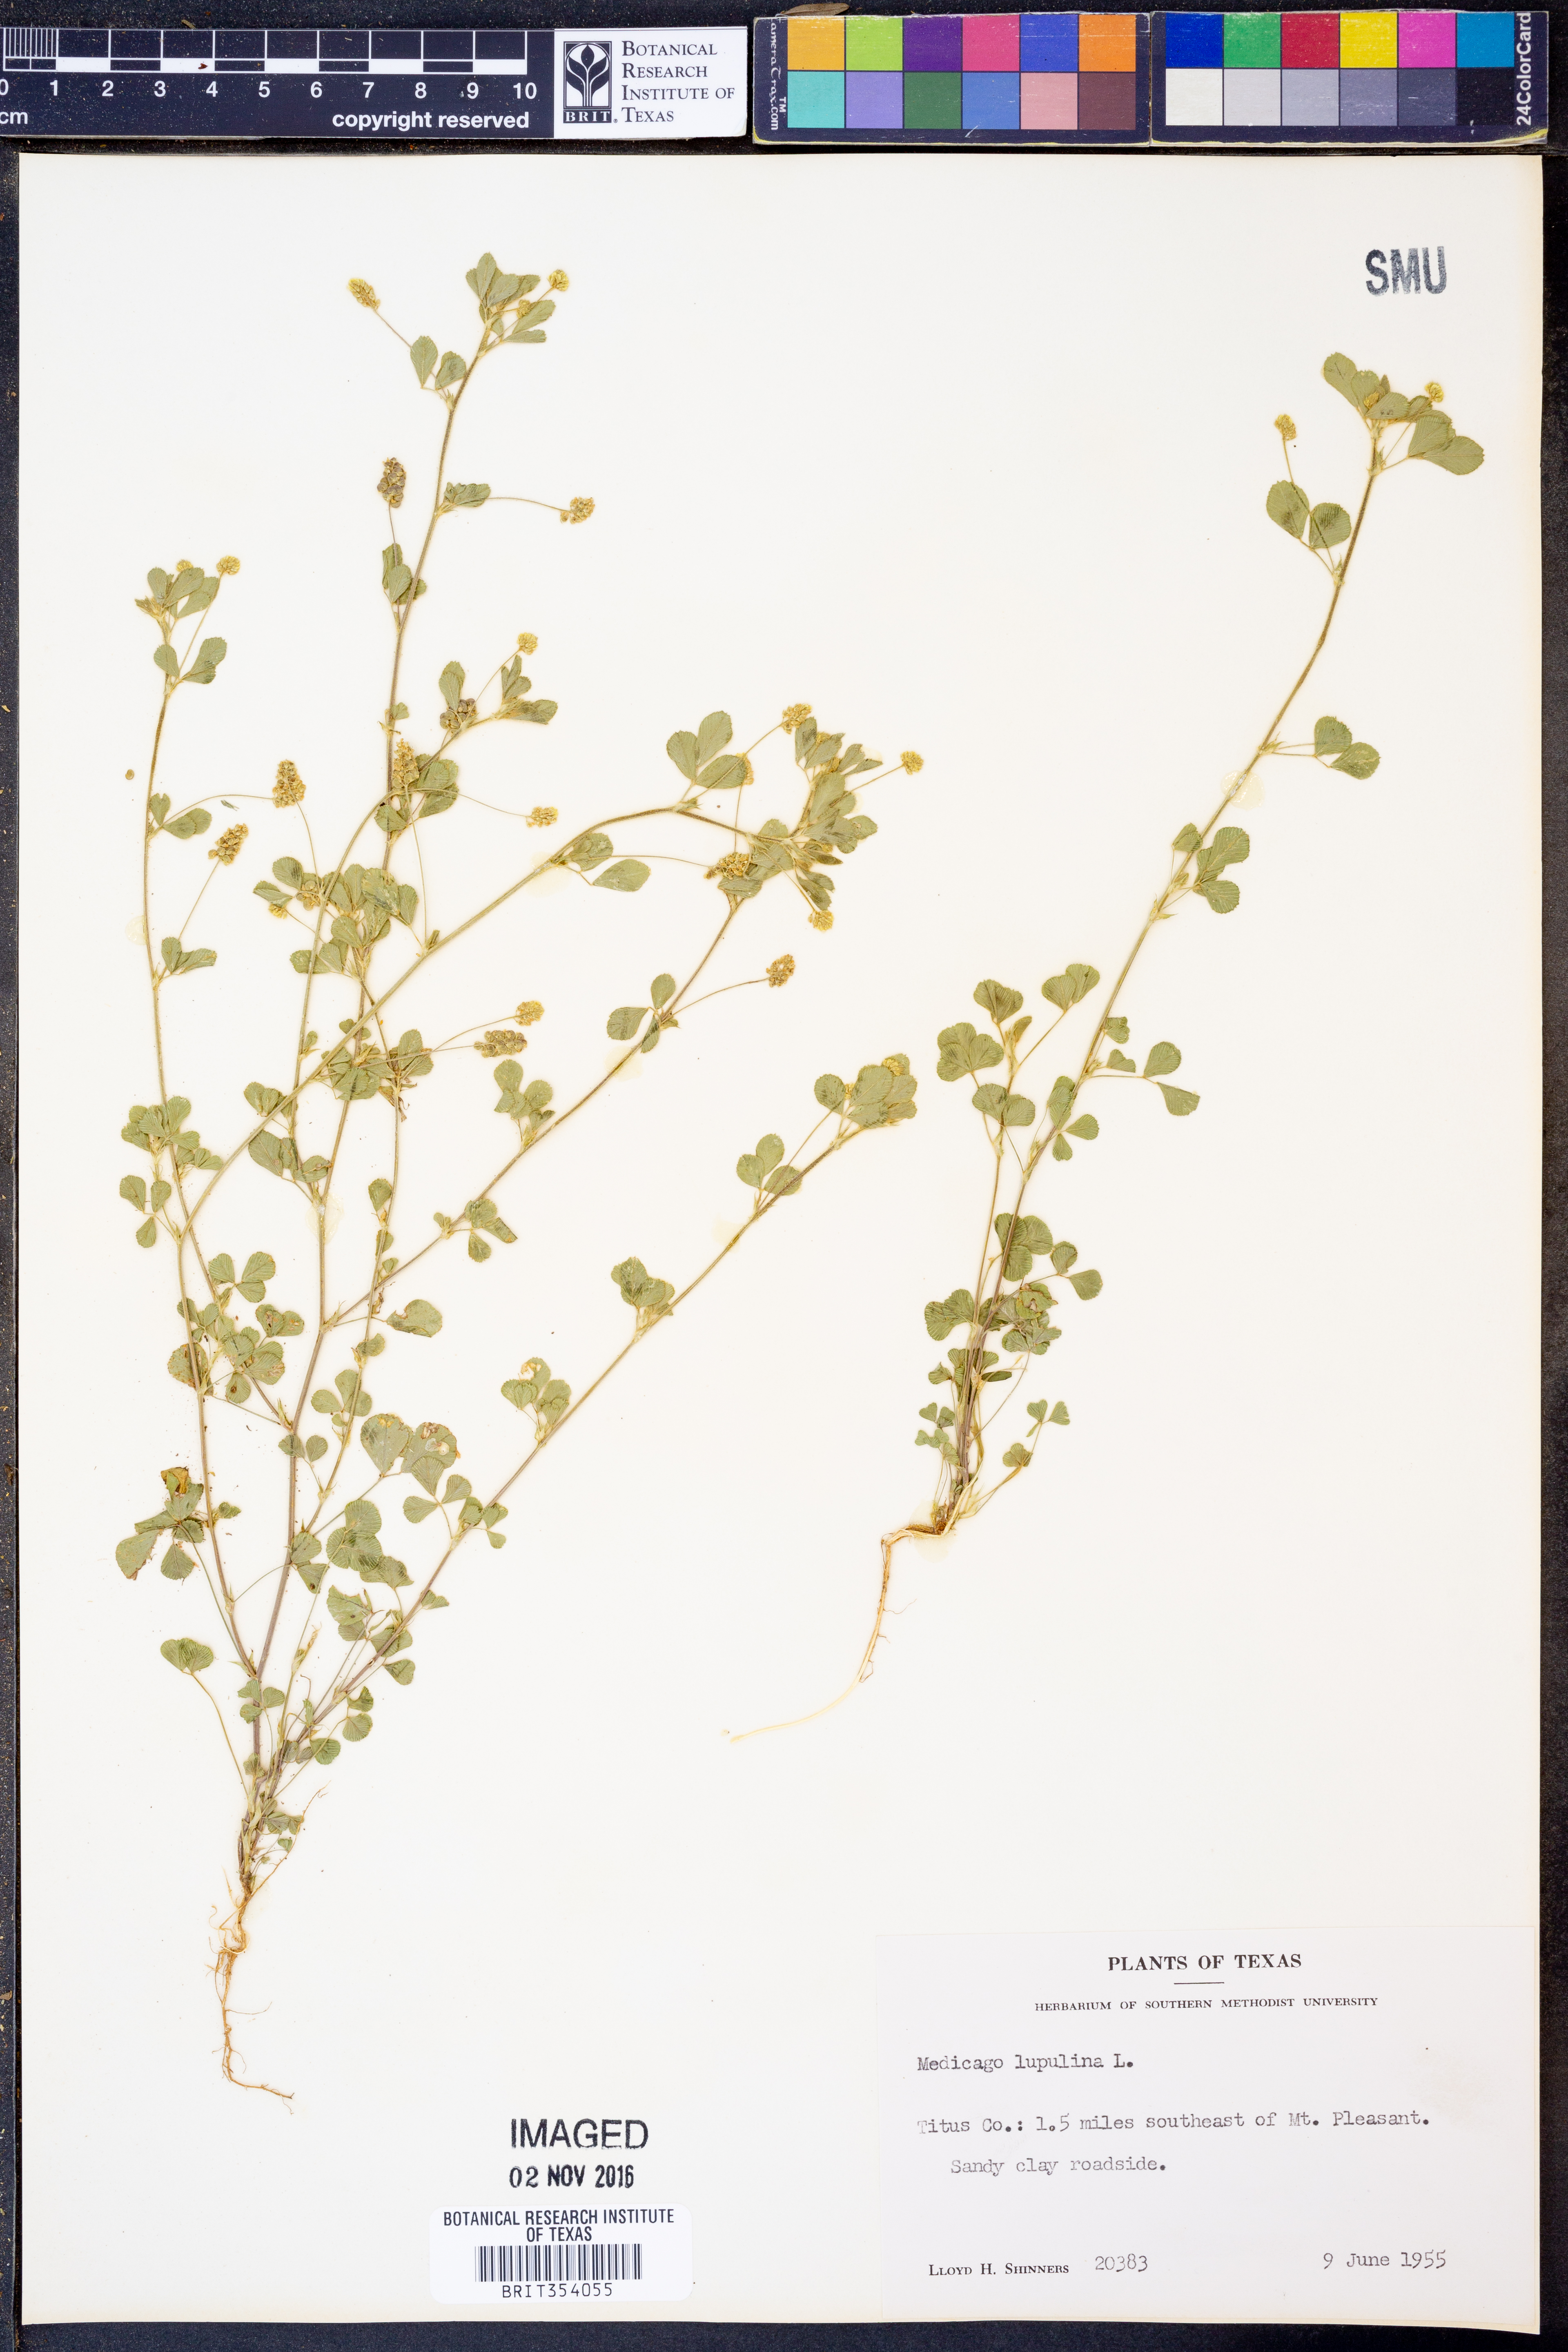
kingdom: Plantae
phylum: Tracheophyta
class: Magnoliopsida
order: Fabales
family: Fabaceae
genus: Medicago
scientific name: Medicago lupulina
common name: Black medick
